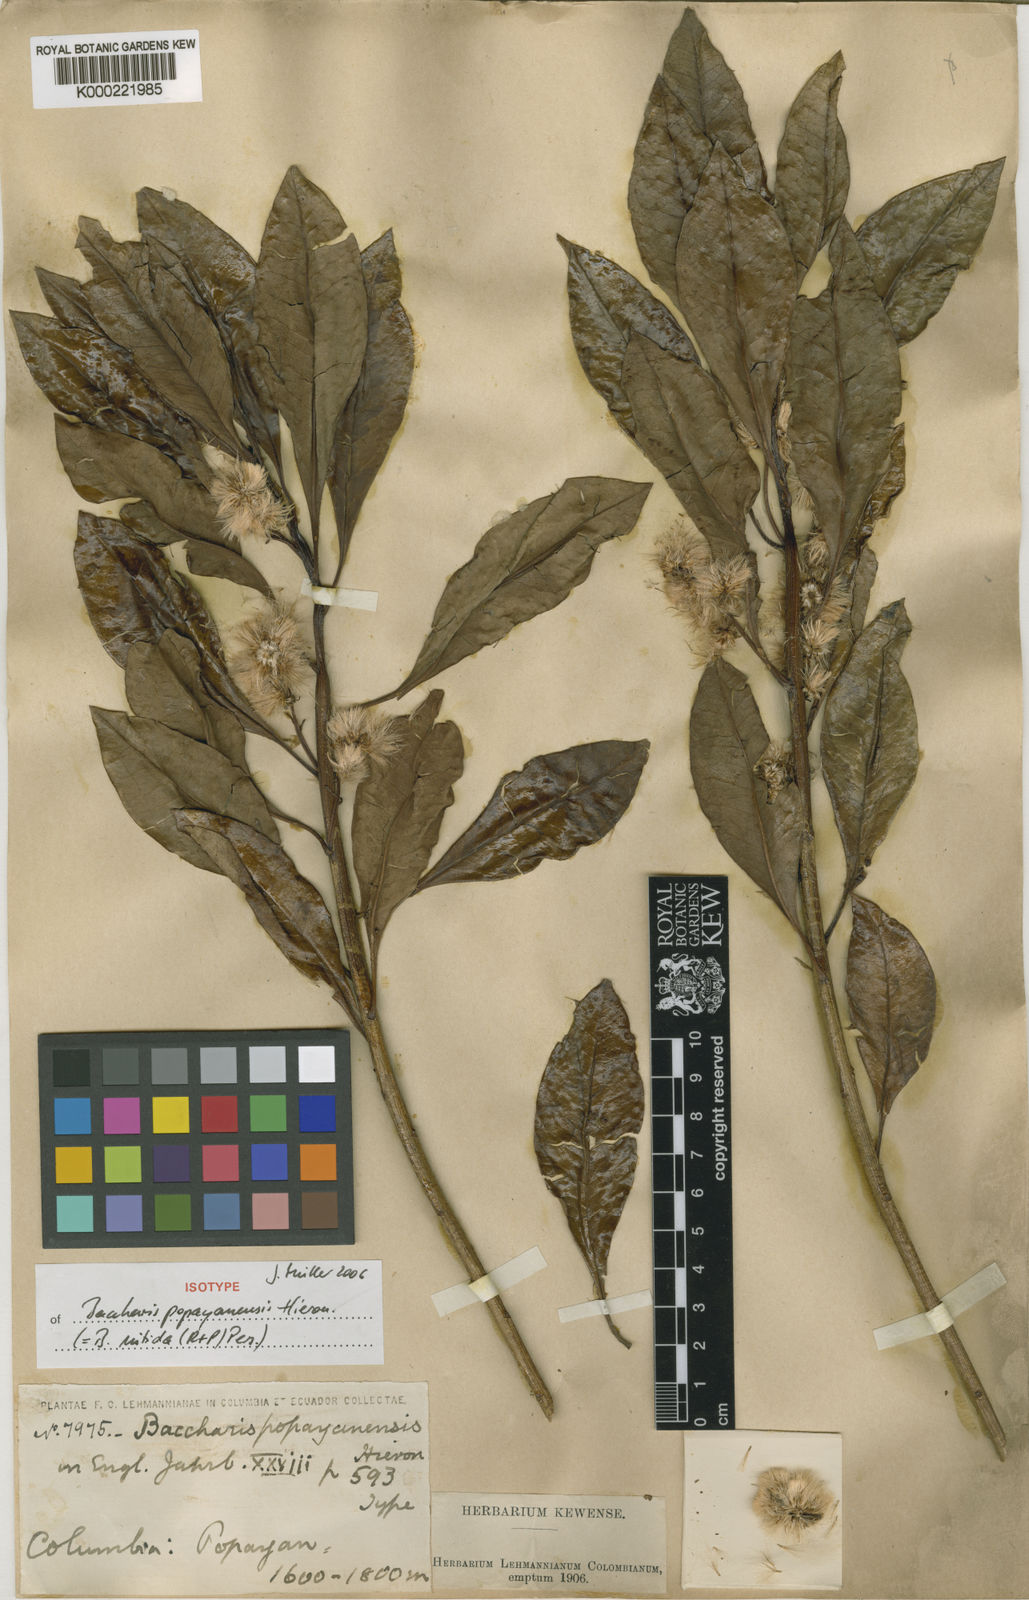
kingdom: Plantae
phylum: Tracheophyta
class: Magnoliopsida
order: Asterales
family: Asteraceae
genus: Baccharis
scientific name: Baccharis nitida
